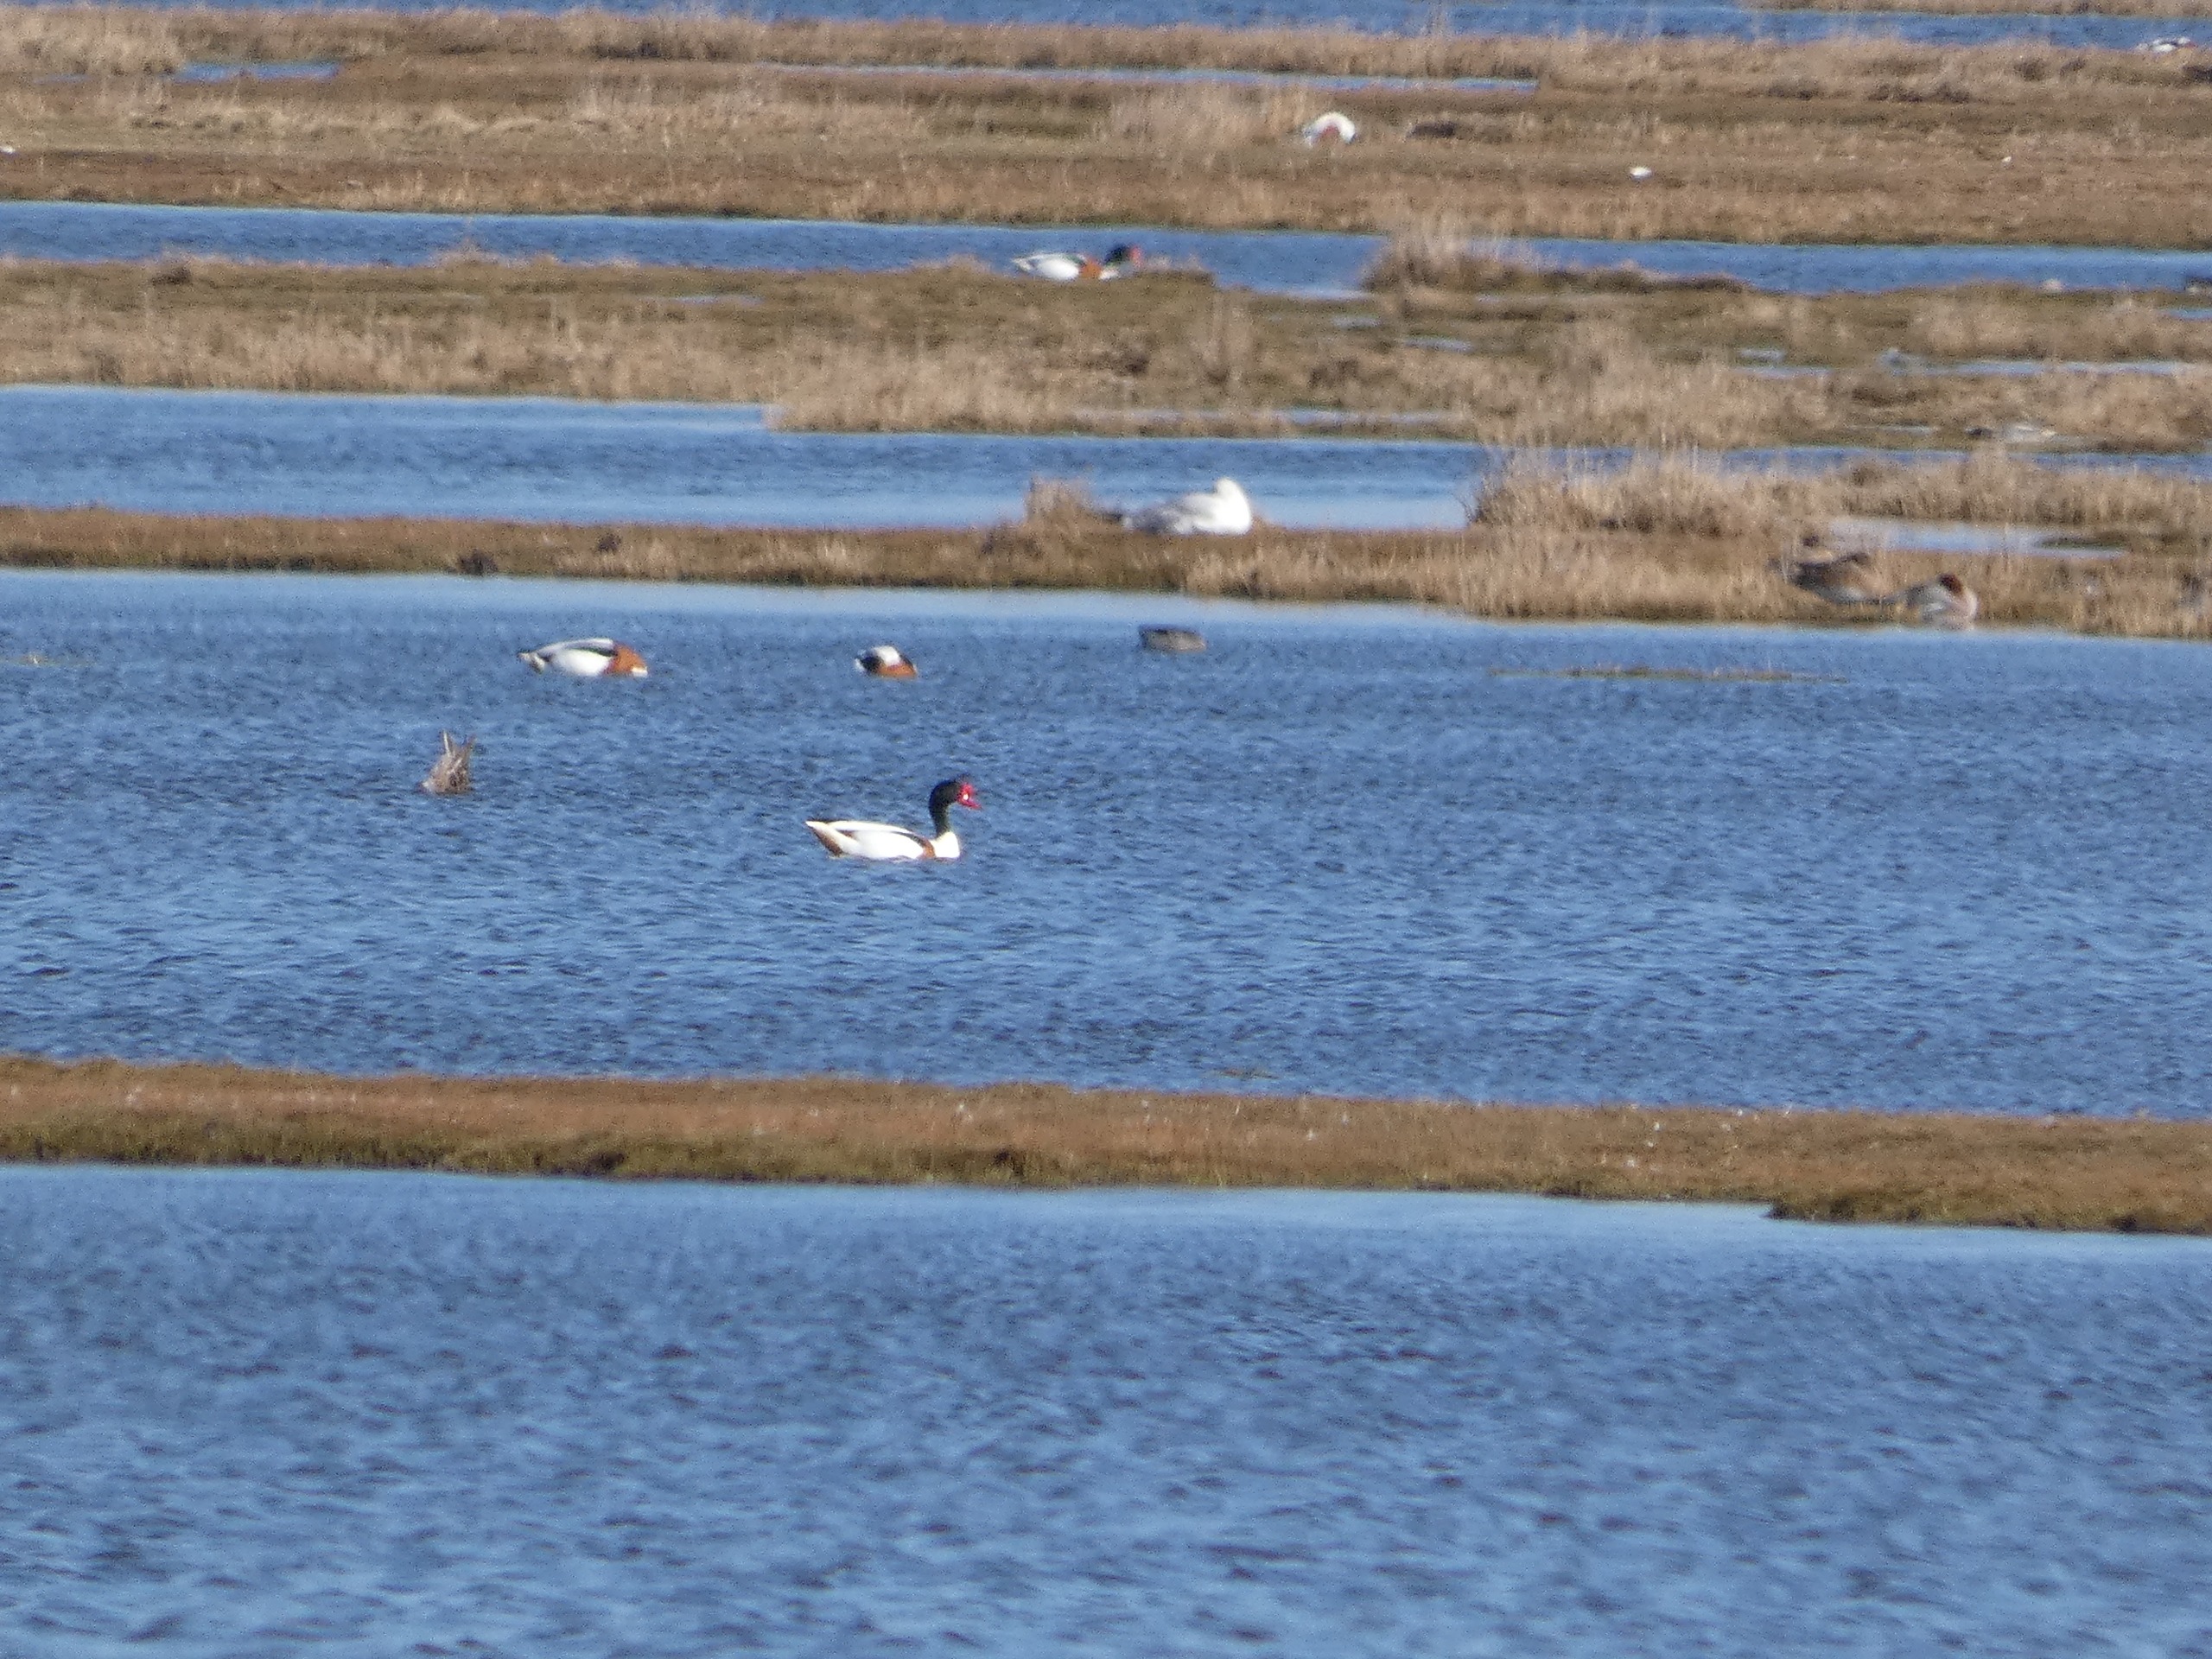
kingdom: Animalia
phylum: Chordata
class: Aves
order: Anseriformes
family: Anatidae
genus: Tadorna
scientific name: Tadorna tadorna
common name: Gravand
